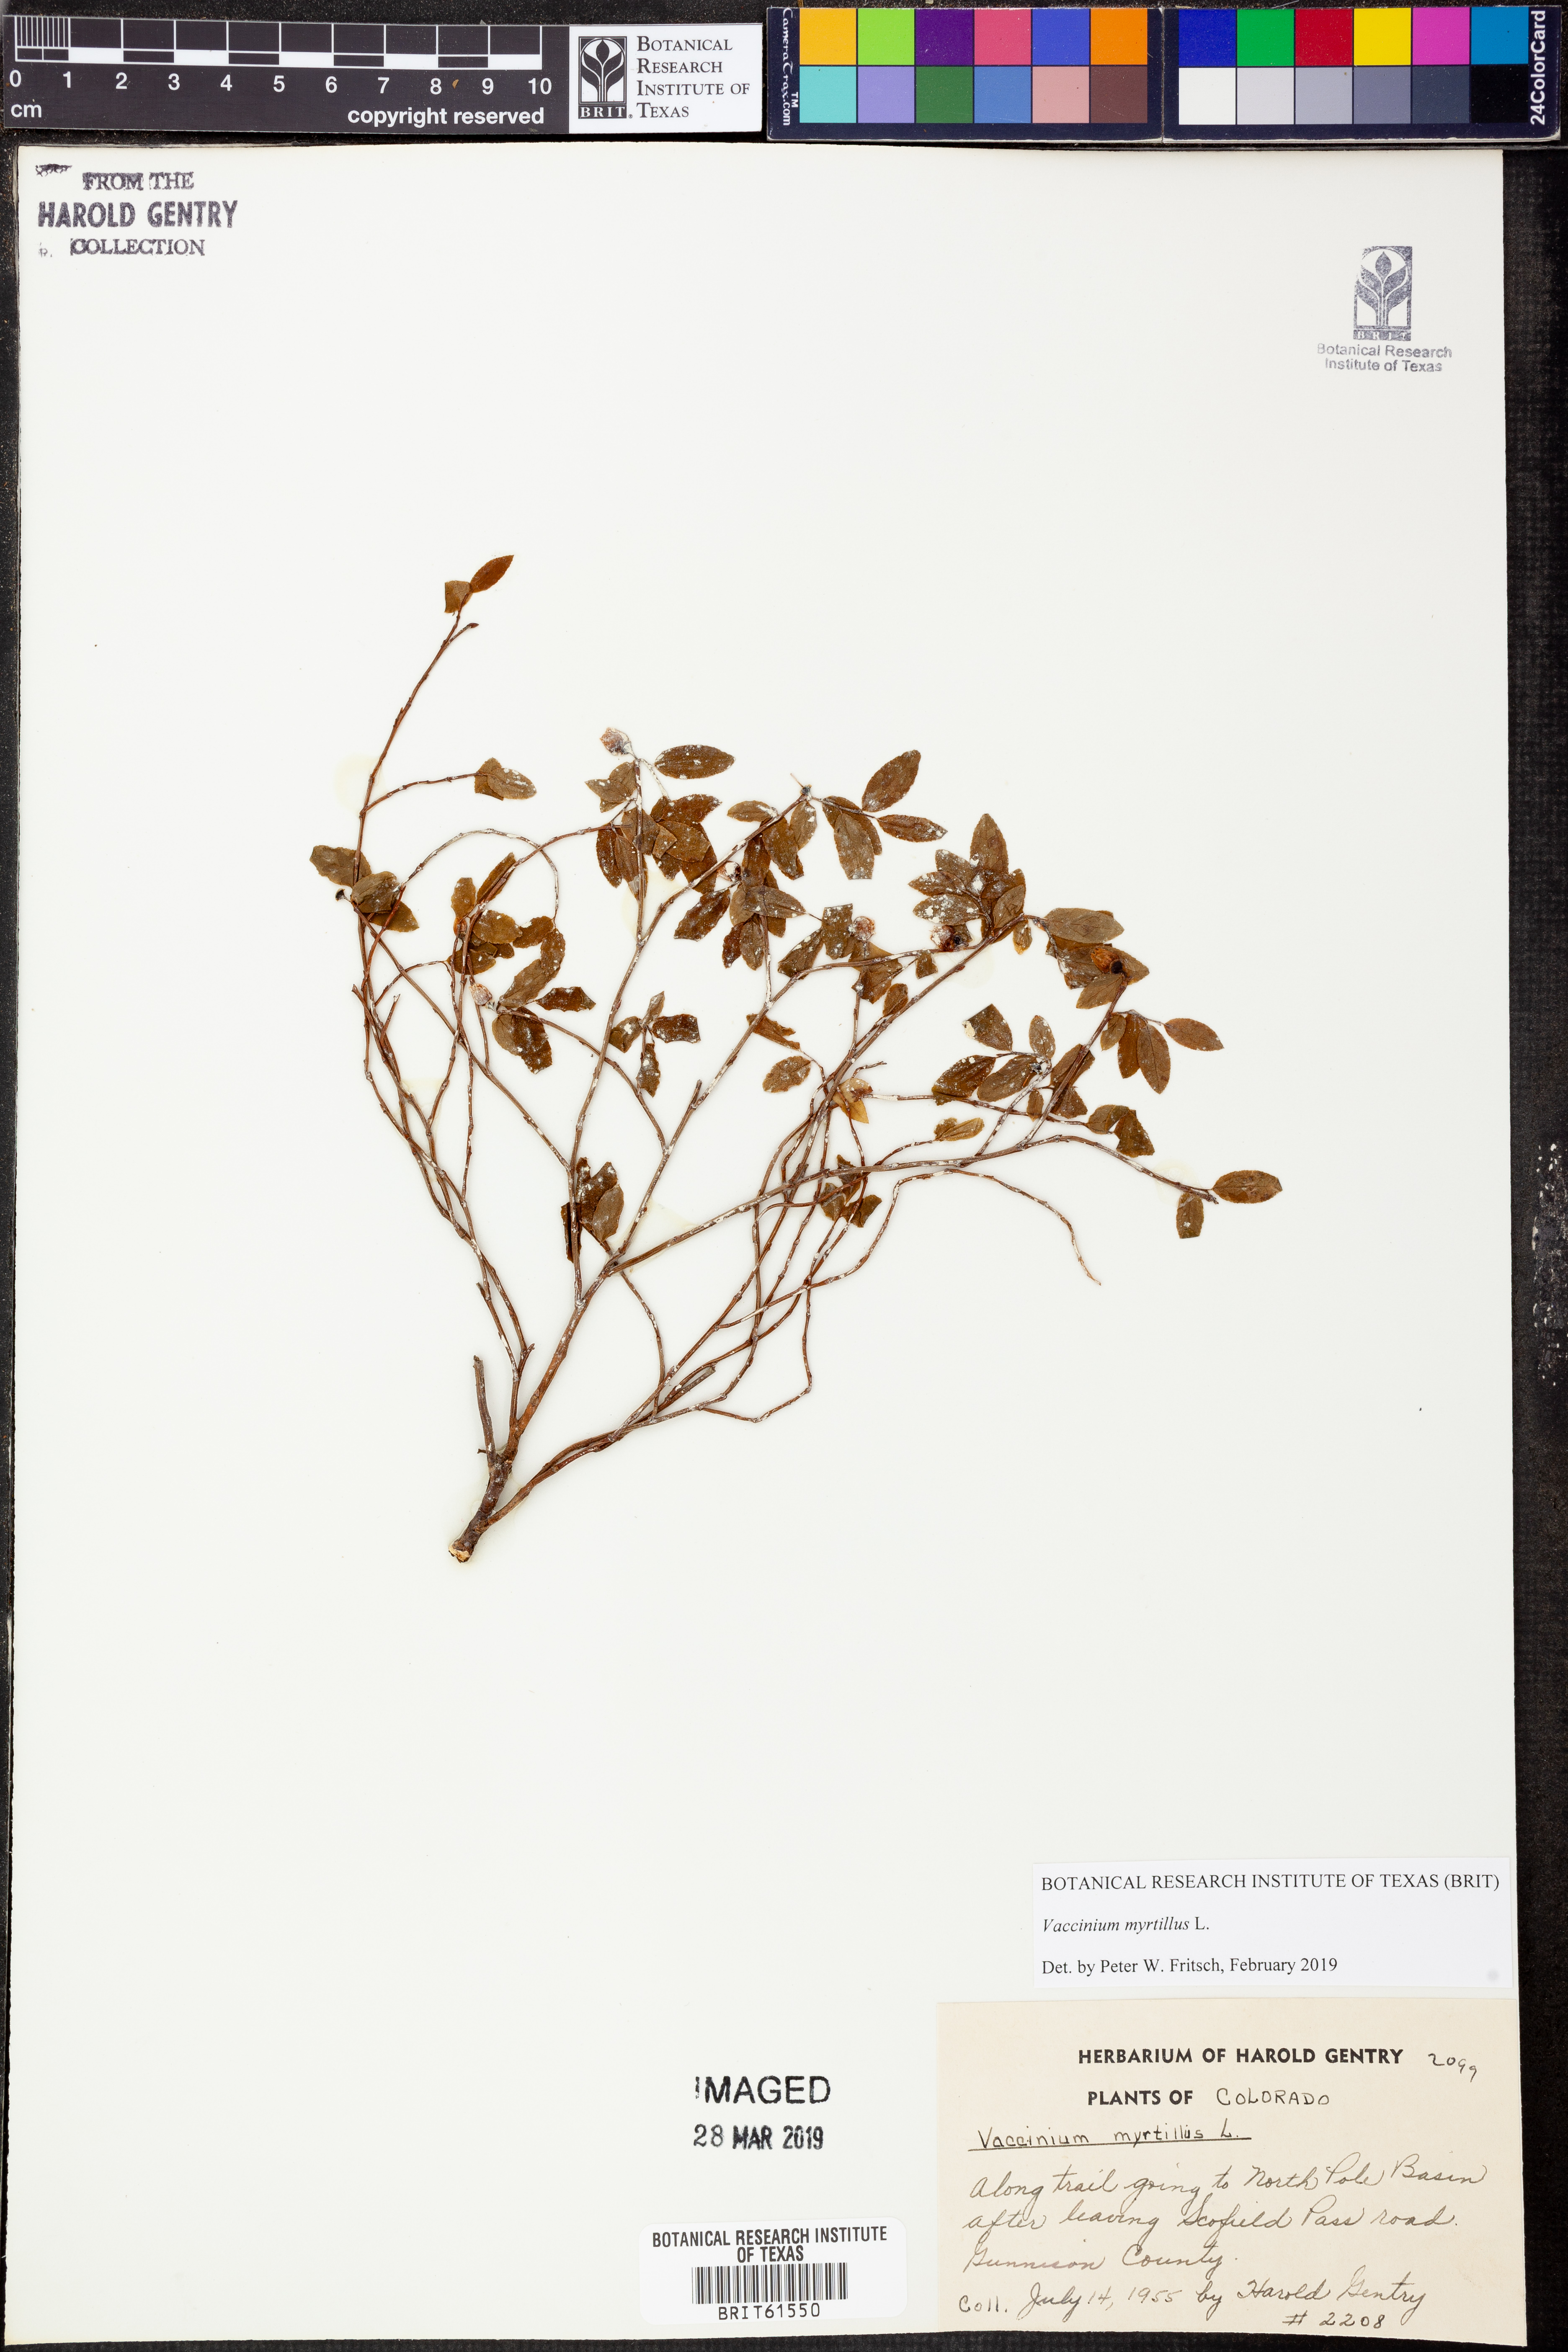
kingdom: Plantae
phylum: Tracheophyta
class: Magnoliopsida
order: Ericales
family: Ericaceae
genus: Vaccinium
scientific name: Vaccinium myrtillus
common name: Bilberry
